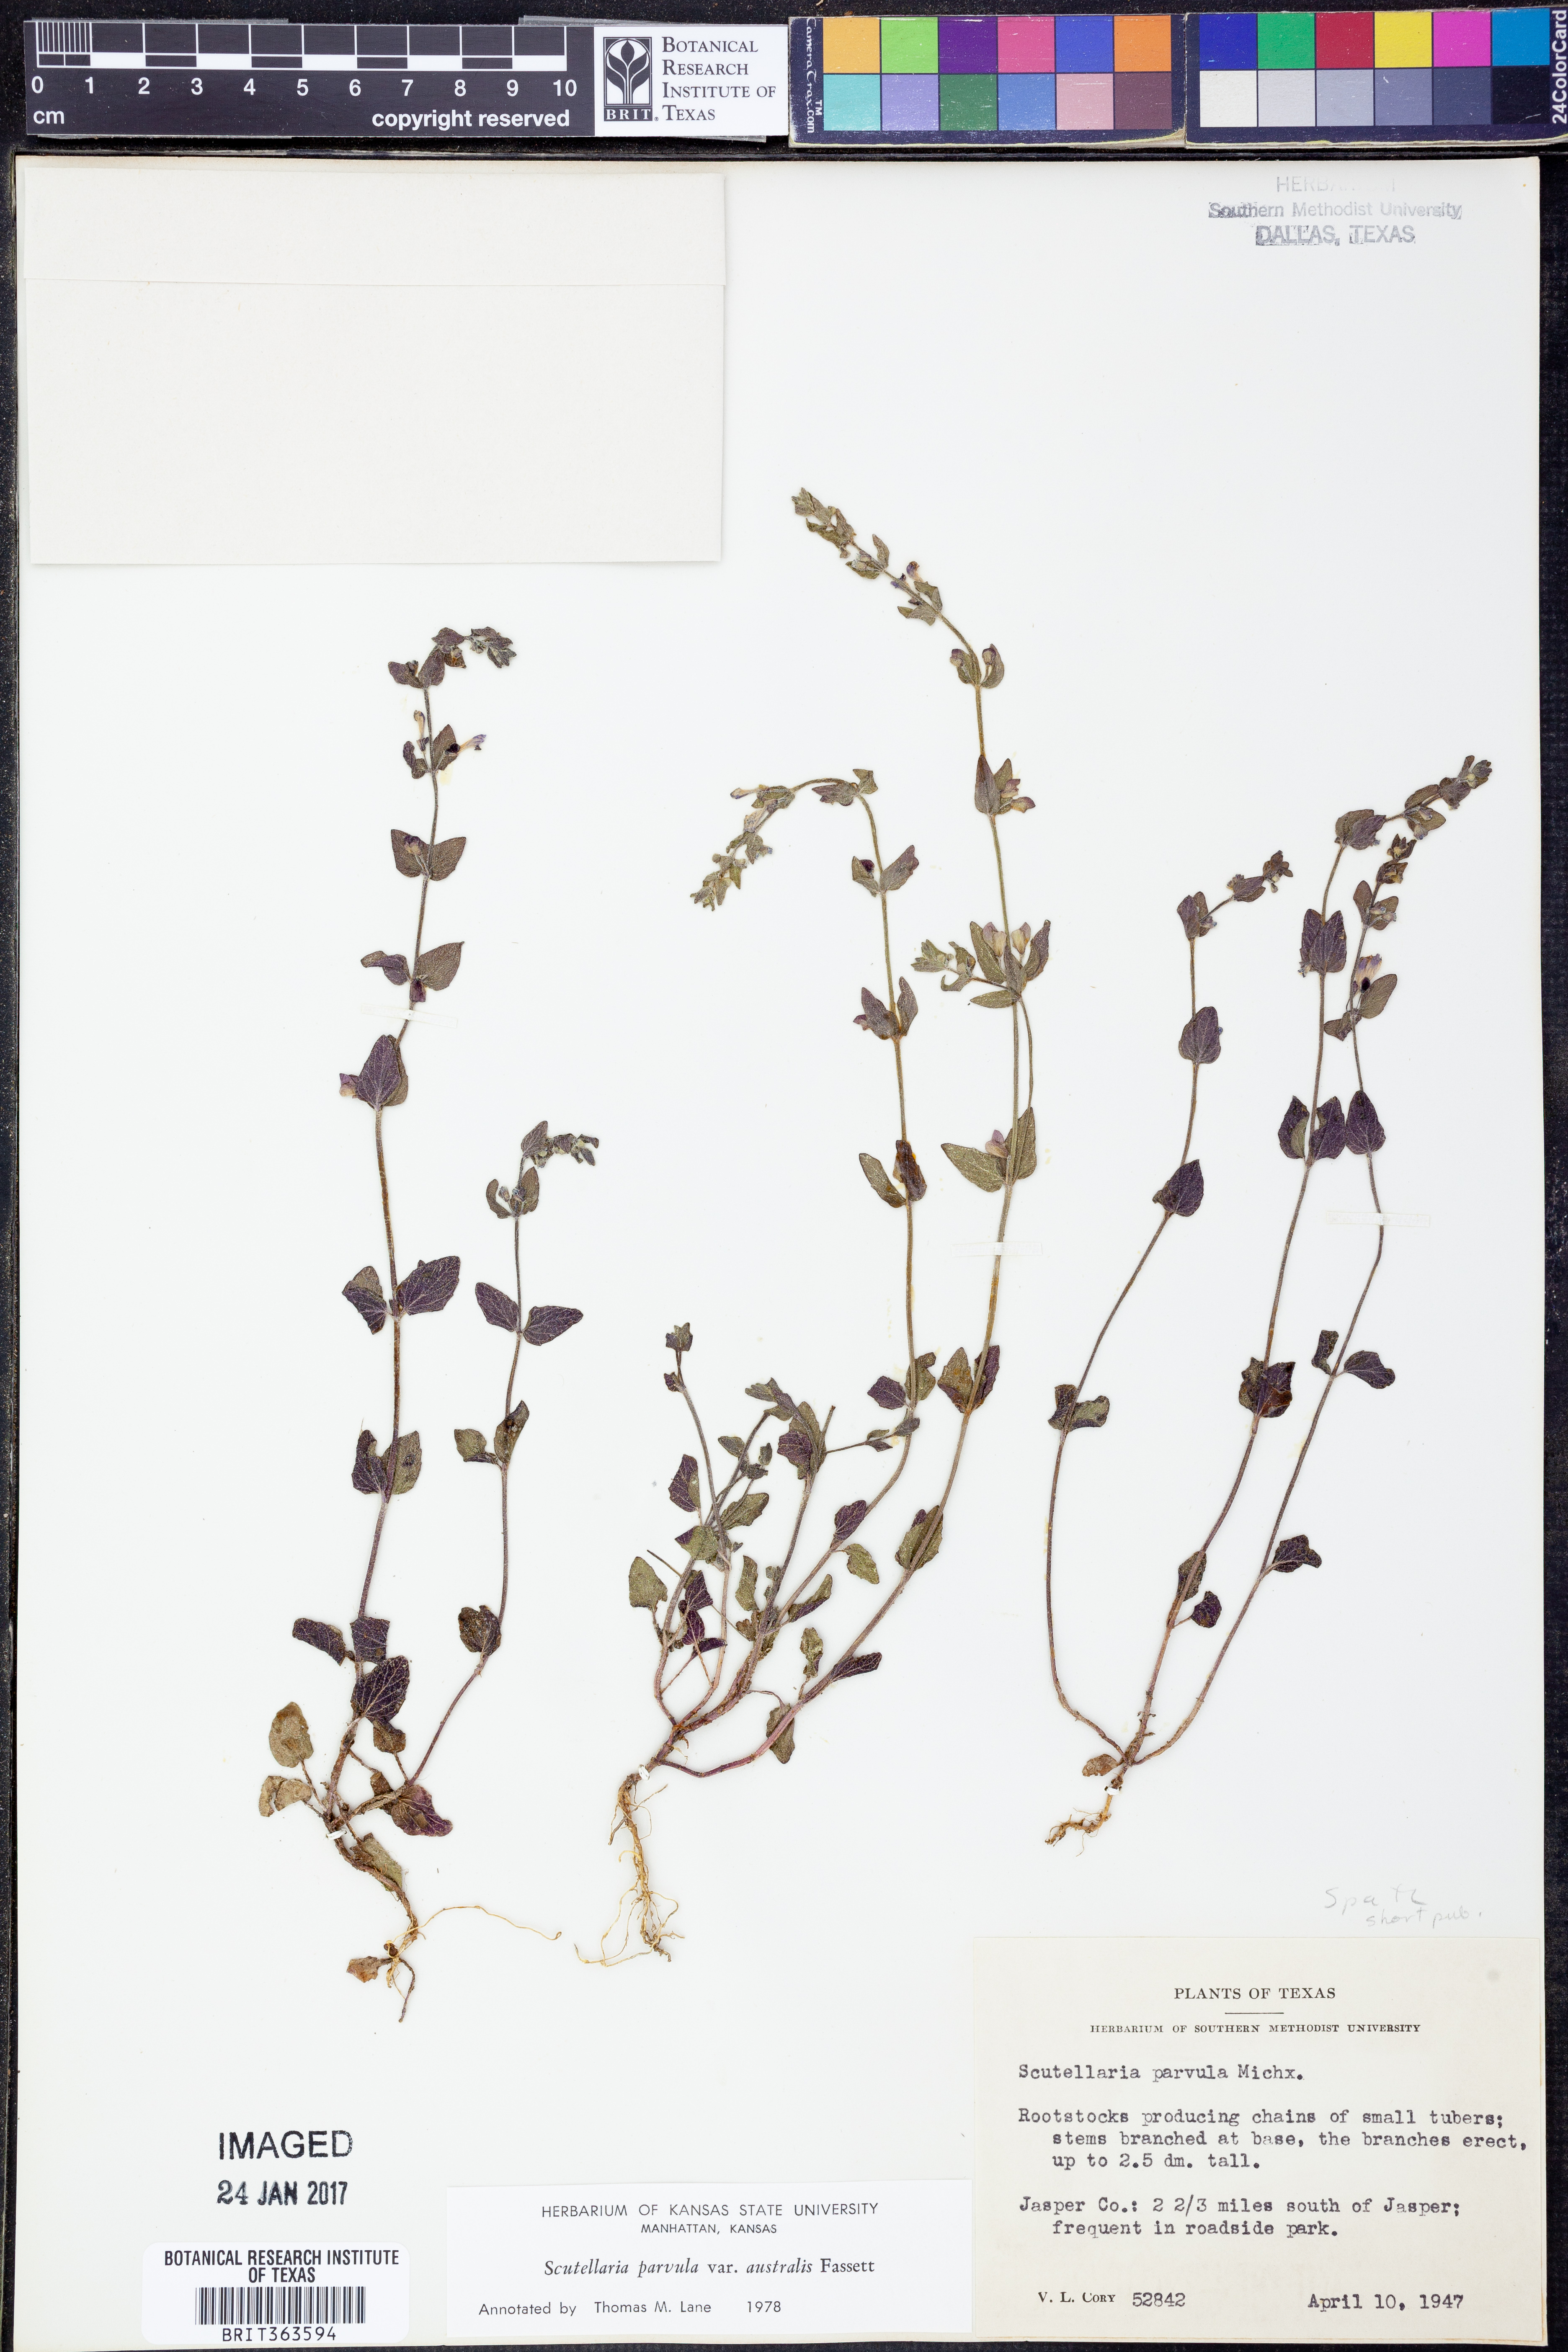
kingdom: Plantae
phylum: Tracheophyta
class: Magnoliopsida
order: Lamiales
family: Lamiaceae
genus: Scutellaria
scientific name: Scutellaria parvula
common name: Little scullcap
